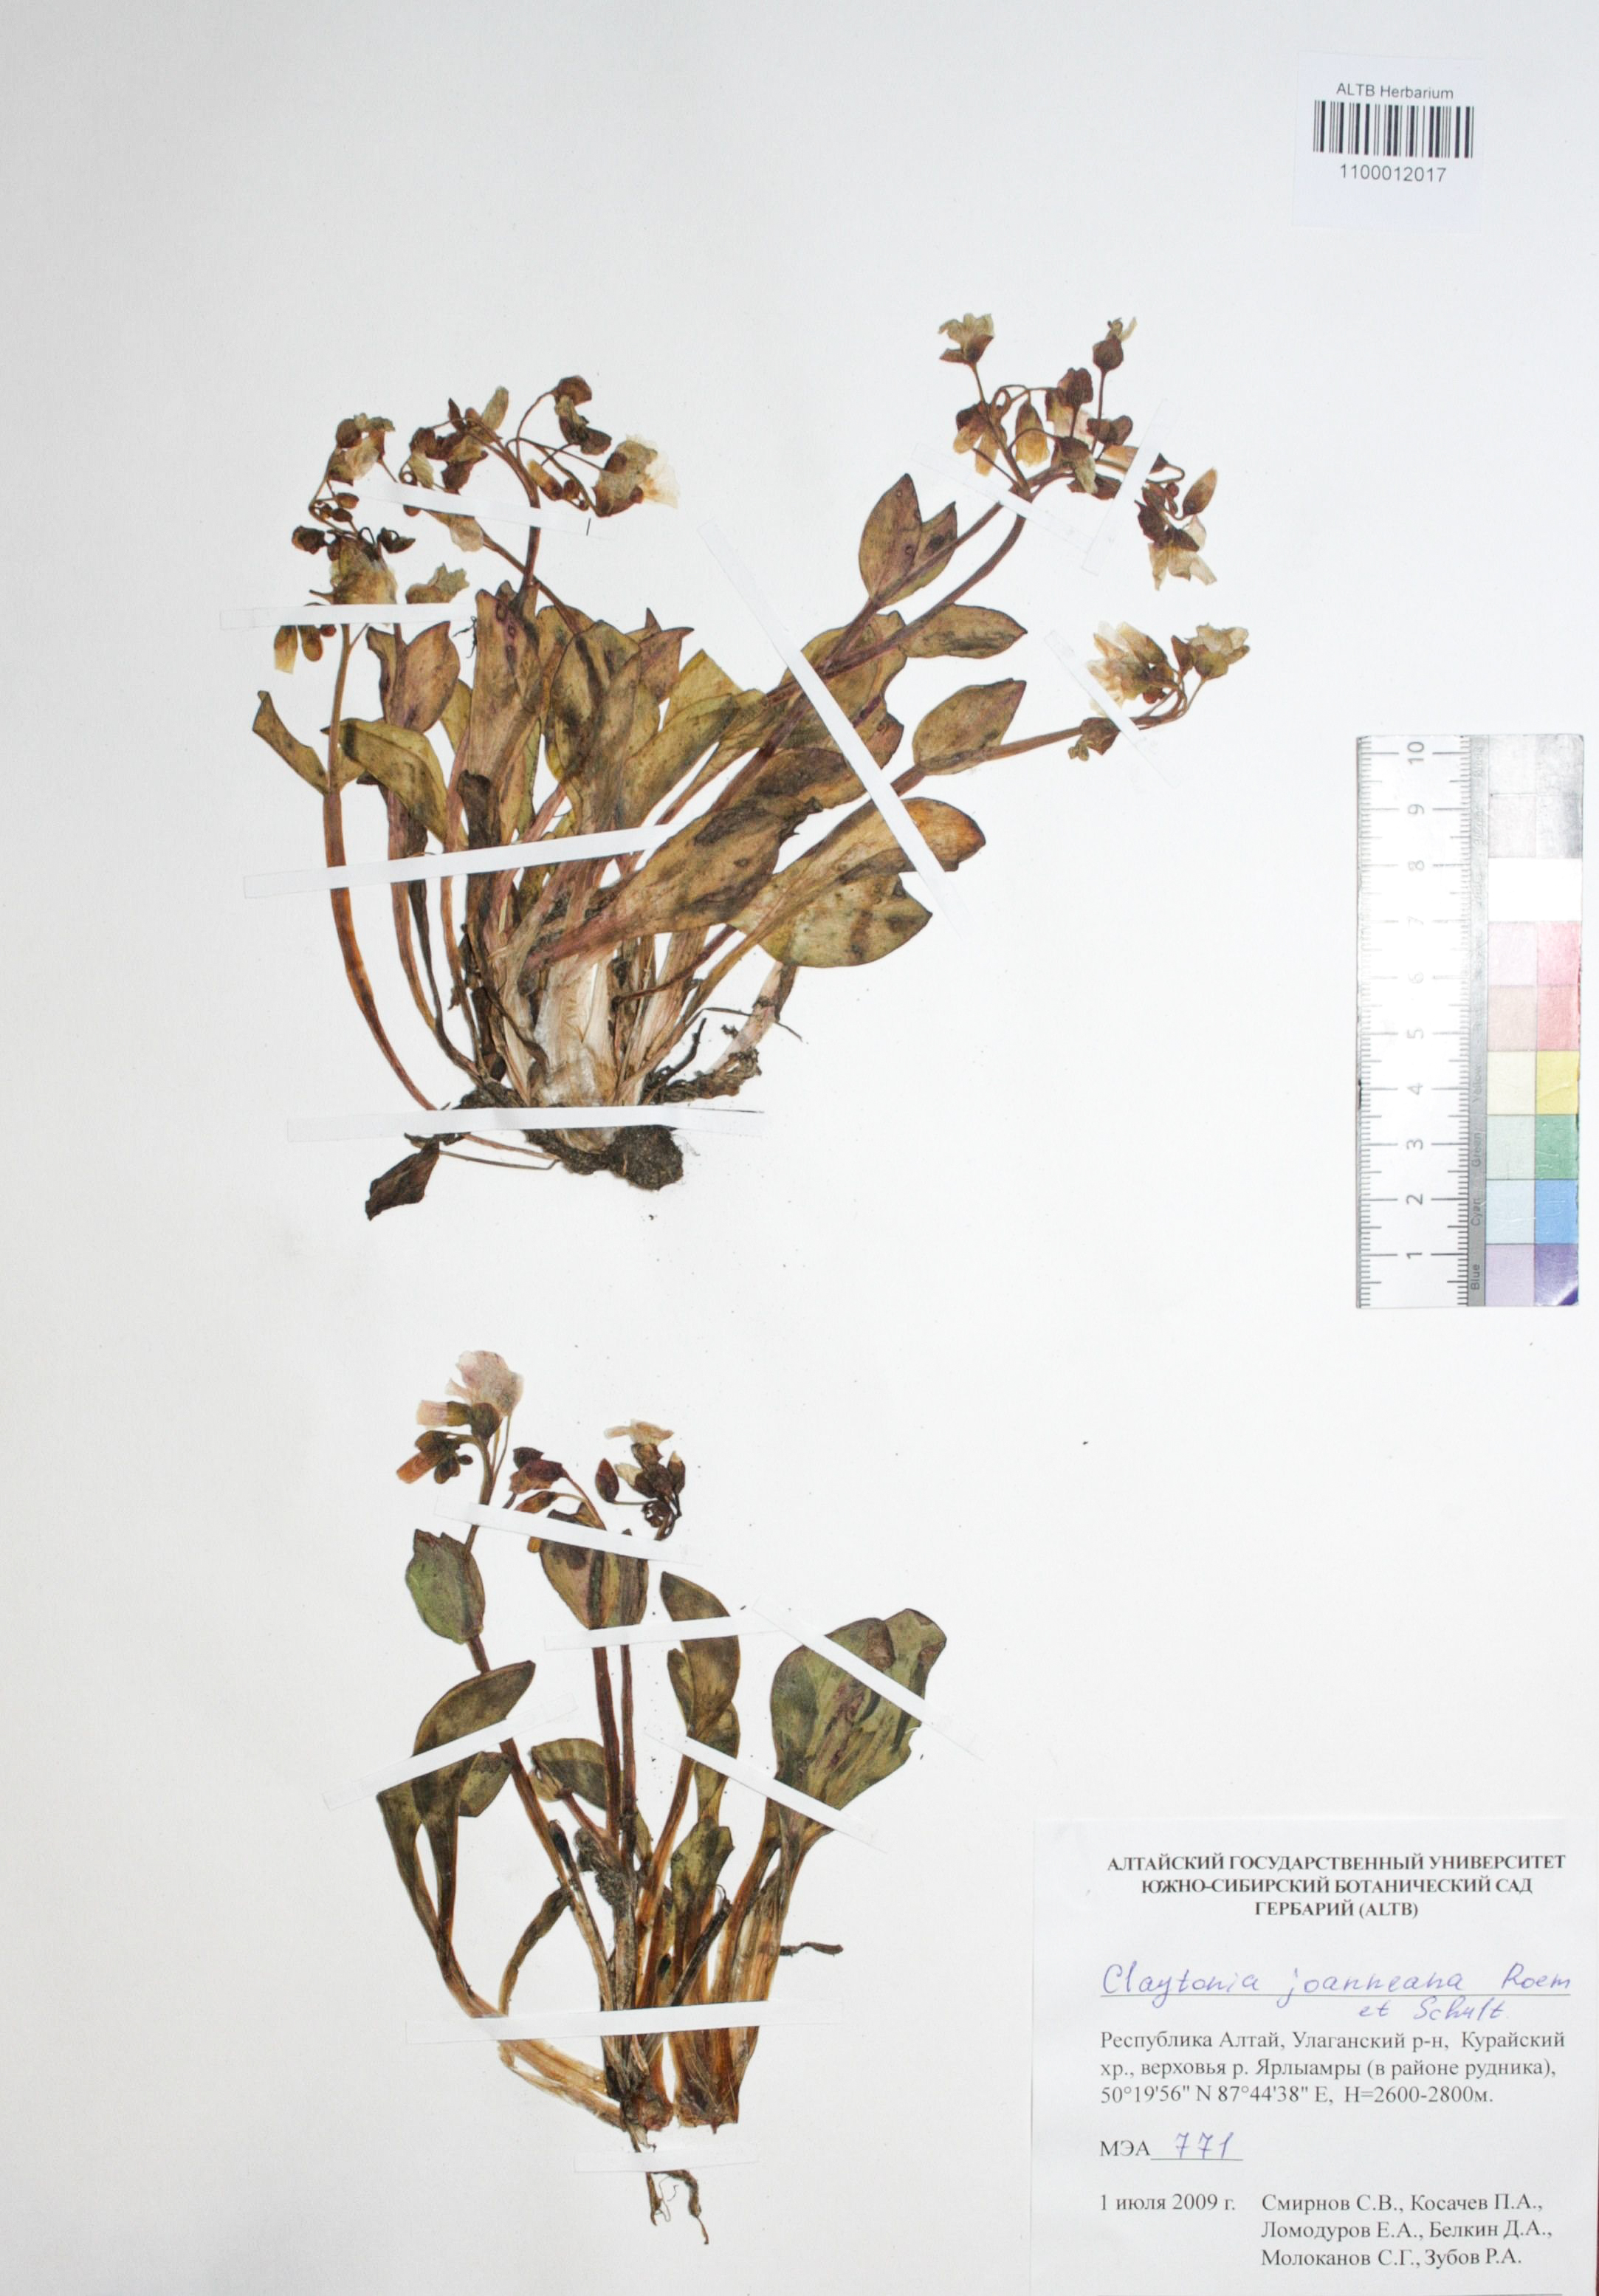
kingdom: Plantae
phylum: Tracheophyta
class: Magnoliopsida
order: Caryophyllales
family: Montiaceae
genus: Claytonia
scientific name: Claytonia joanneana
